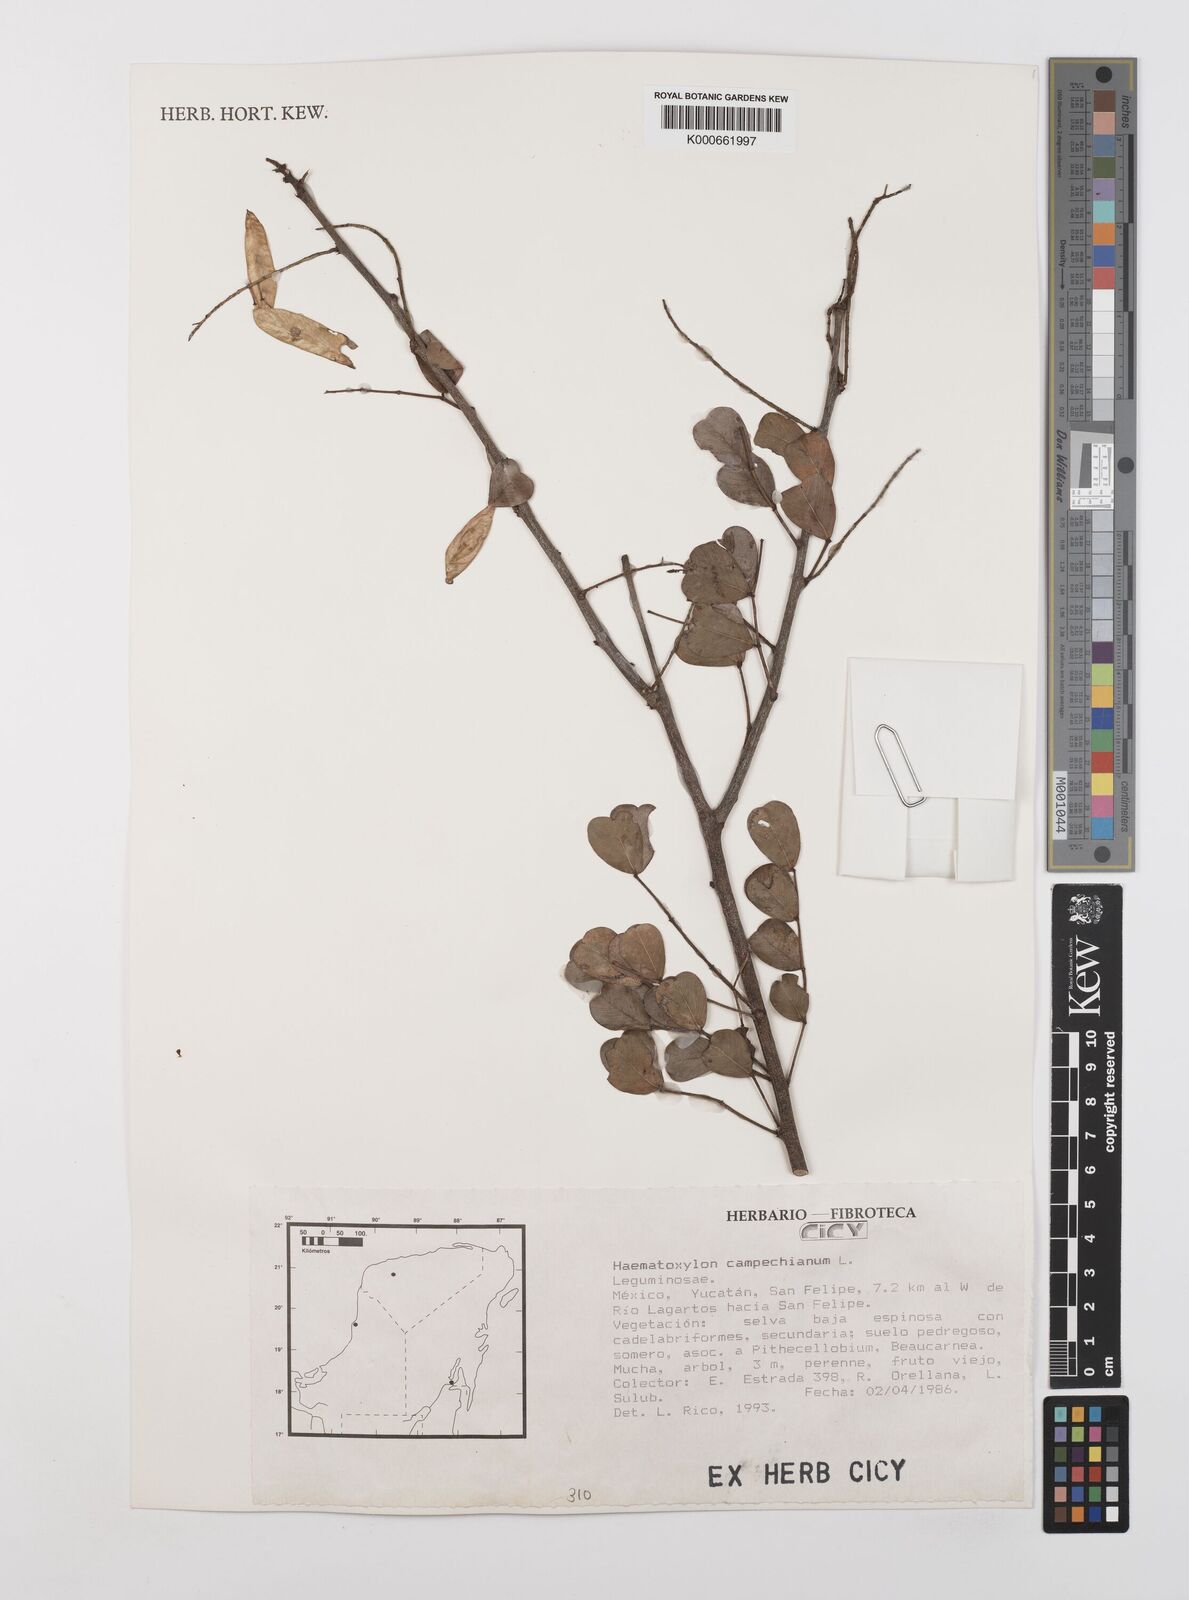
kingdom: Plantae
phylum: Tracheophyta
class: Magnoliopsida
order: Fabales
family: Fabaceae
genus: Haematoxylum
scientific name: Haematoxylum
